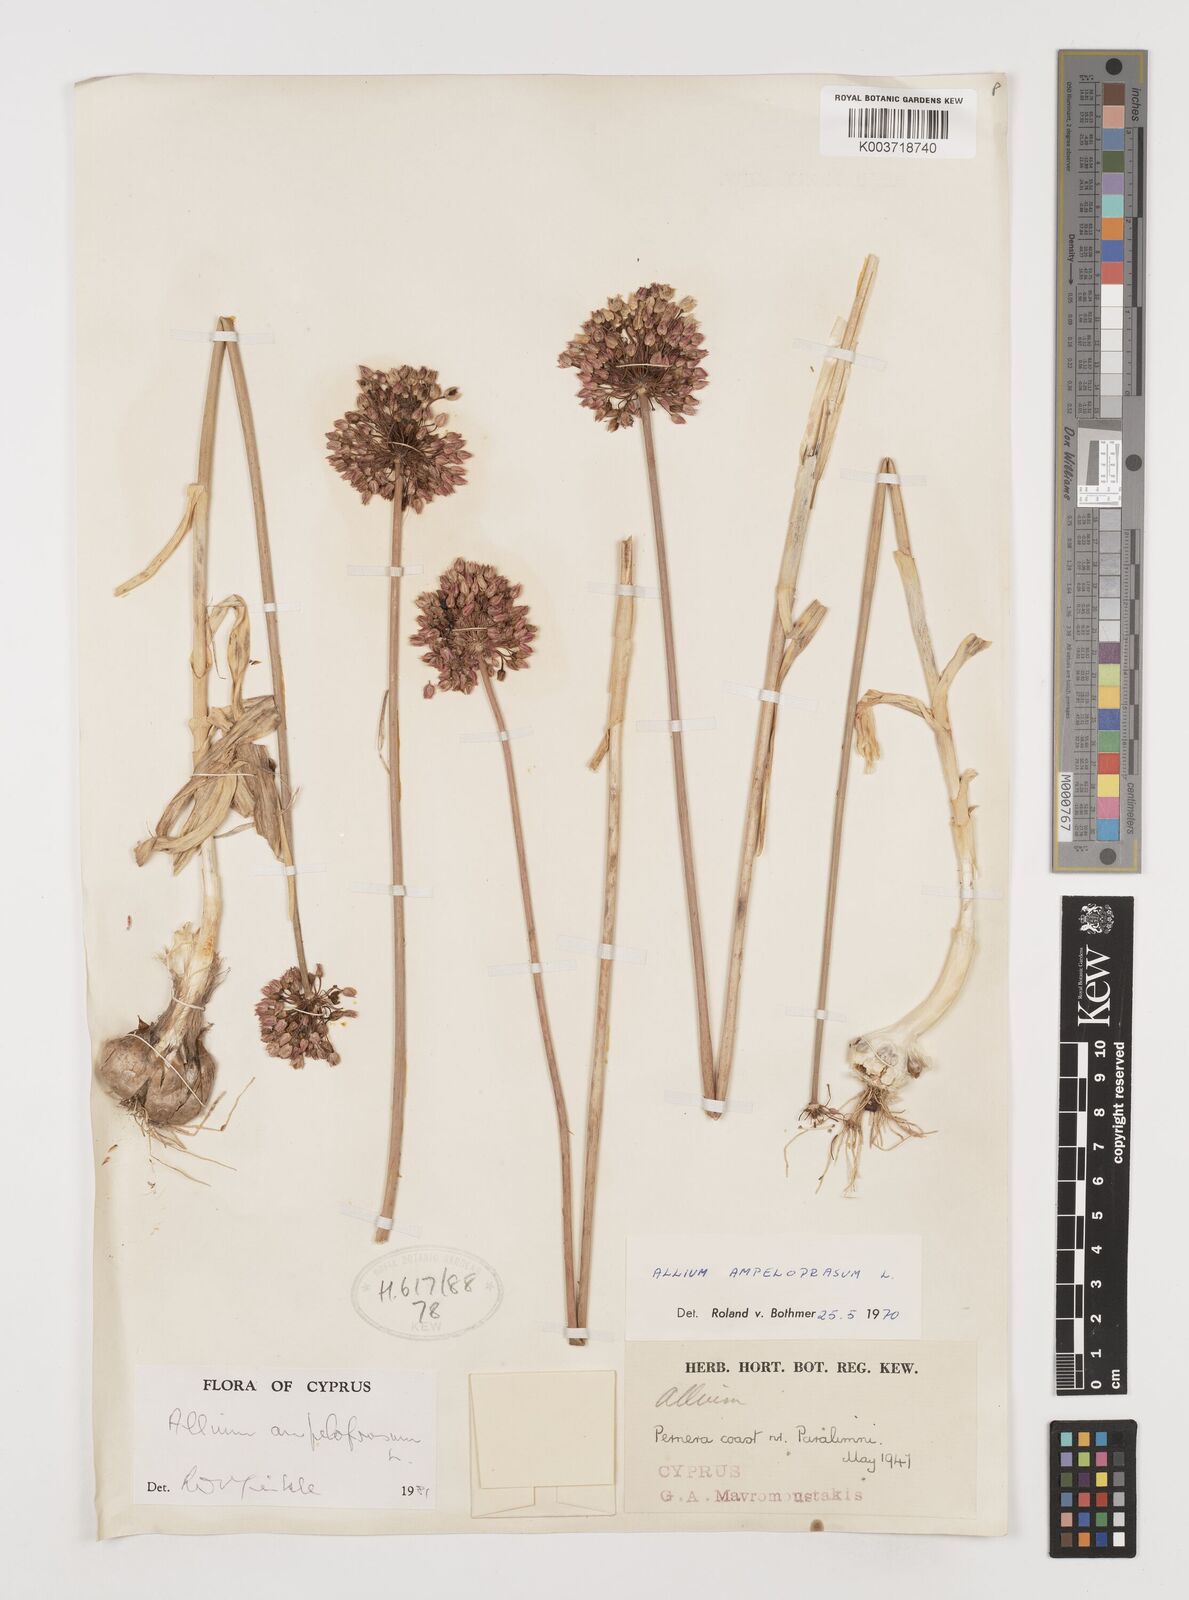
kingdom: Plantae
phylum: Tracheophyta
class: Liliopsida
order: Asparagales
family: Amaryllidaceae
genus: Allium
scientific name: Allium ampeloprasum
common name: Wild leek
